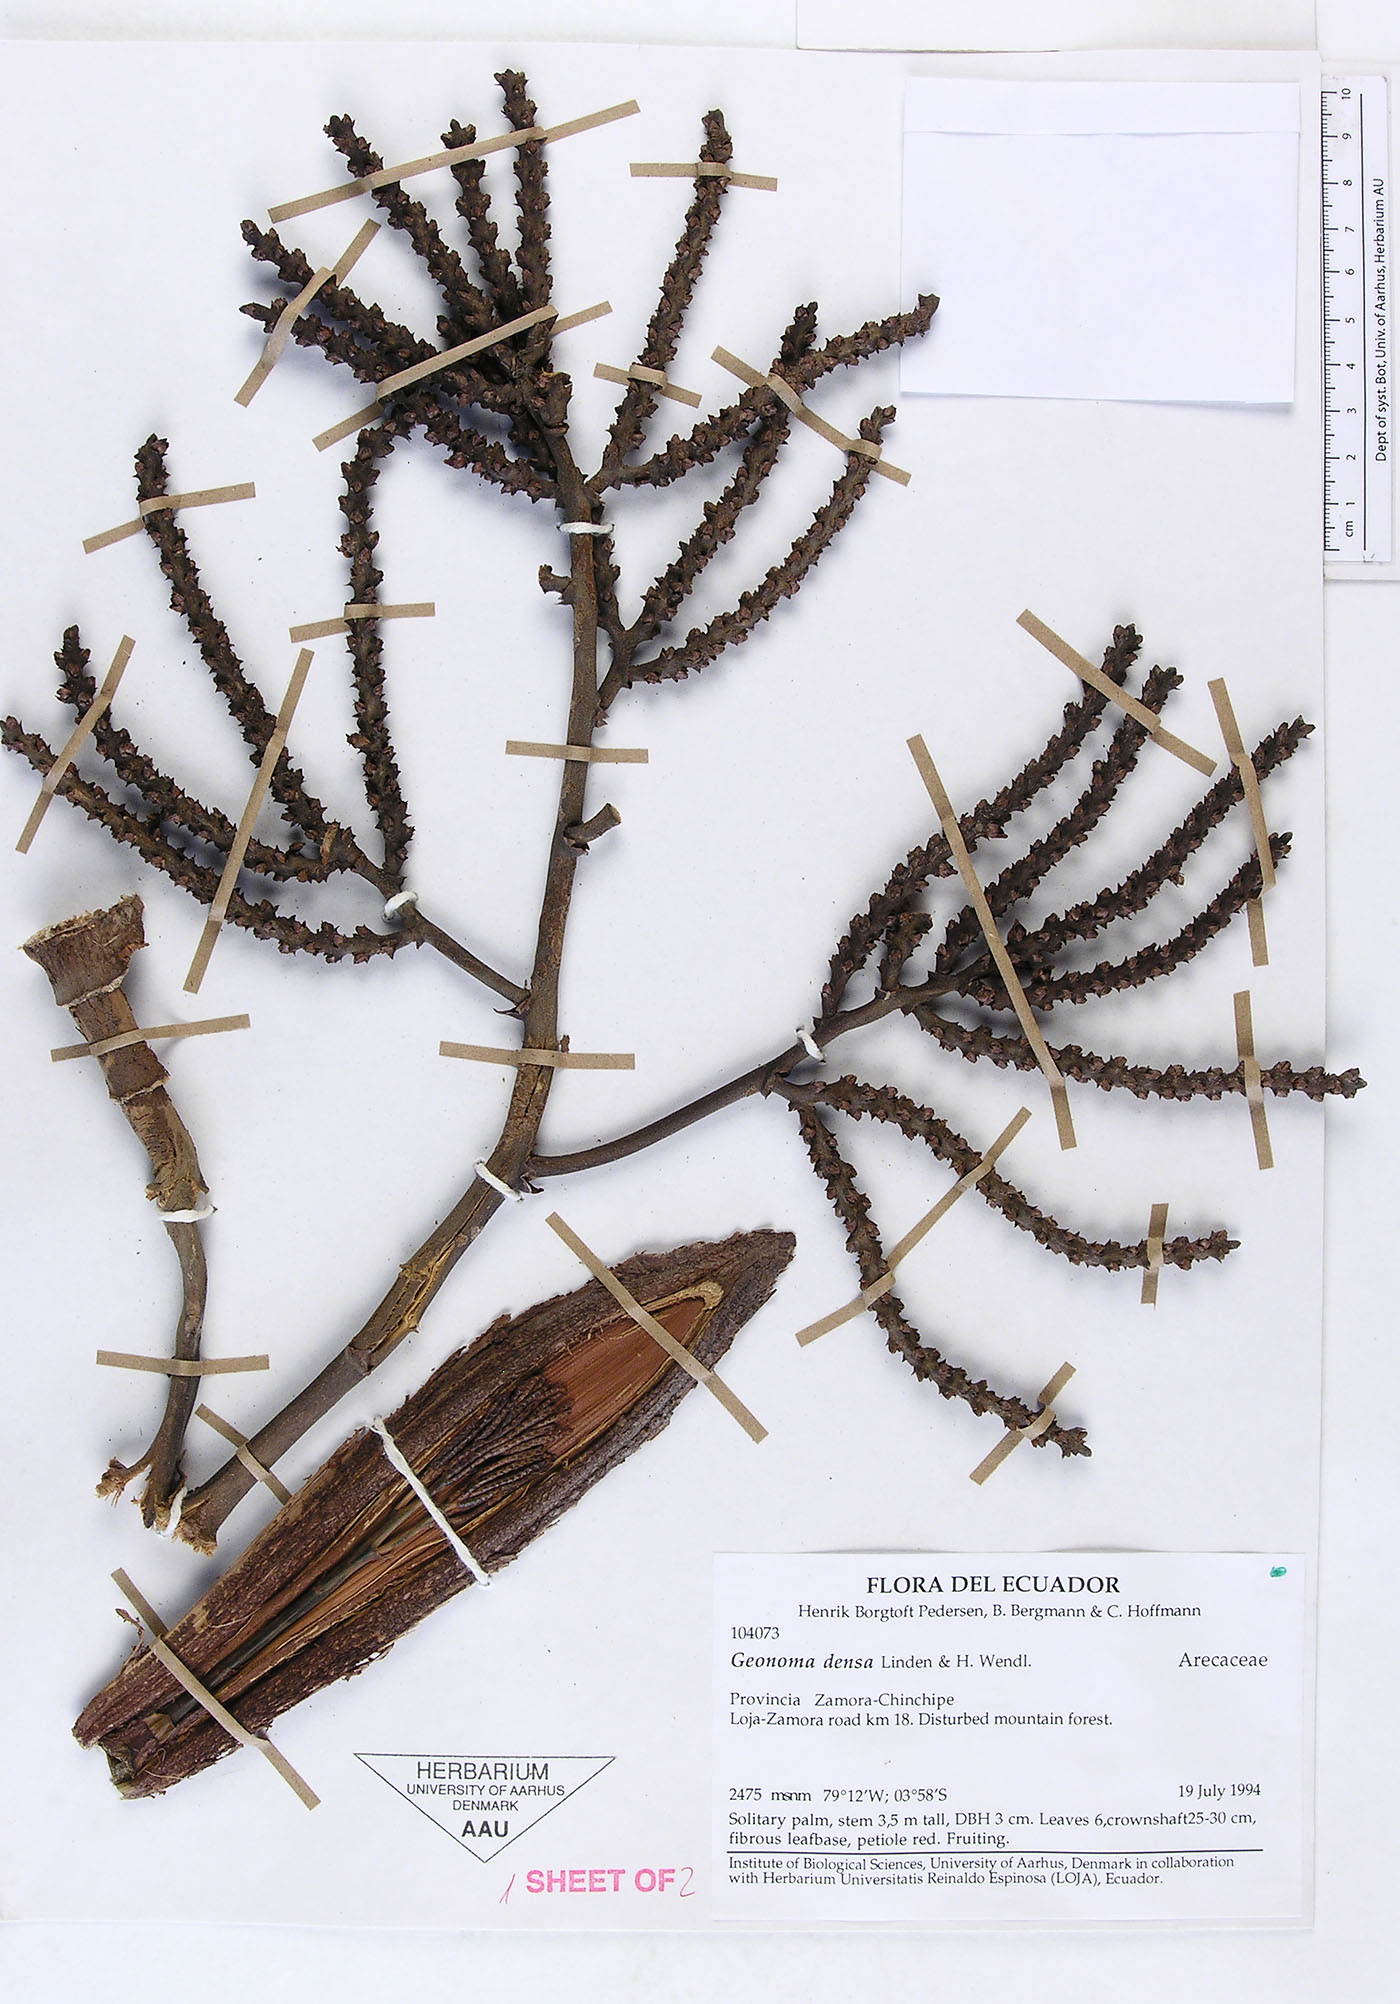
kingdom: Plantae
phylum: Tracheophyta
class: Liliopsida
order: Arecales
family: Arecaceae
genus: Geonoma
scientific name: Geonoma undata
